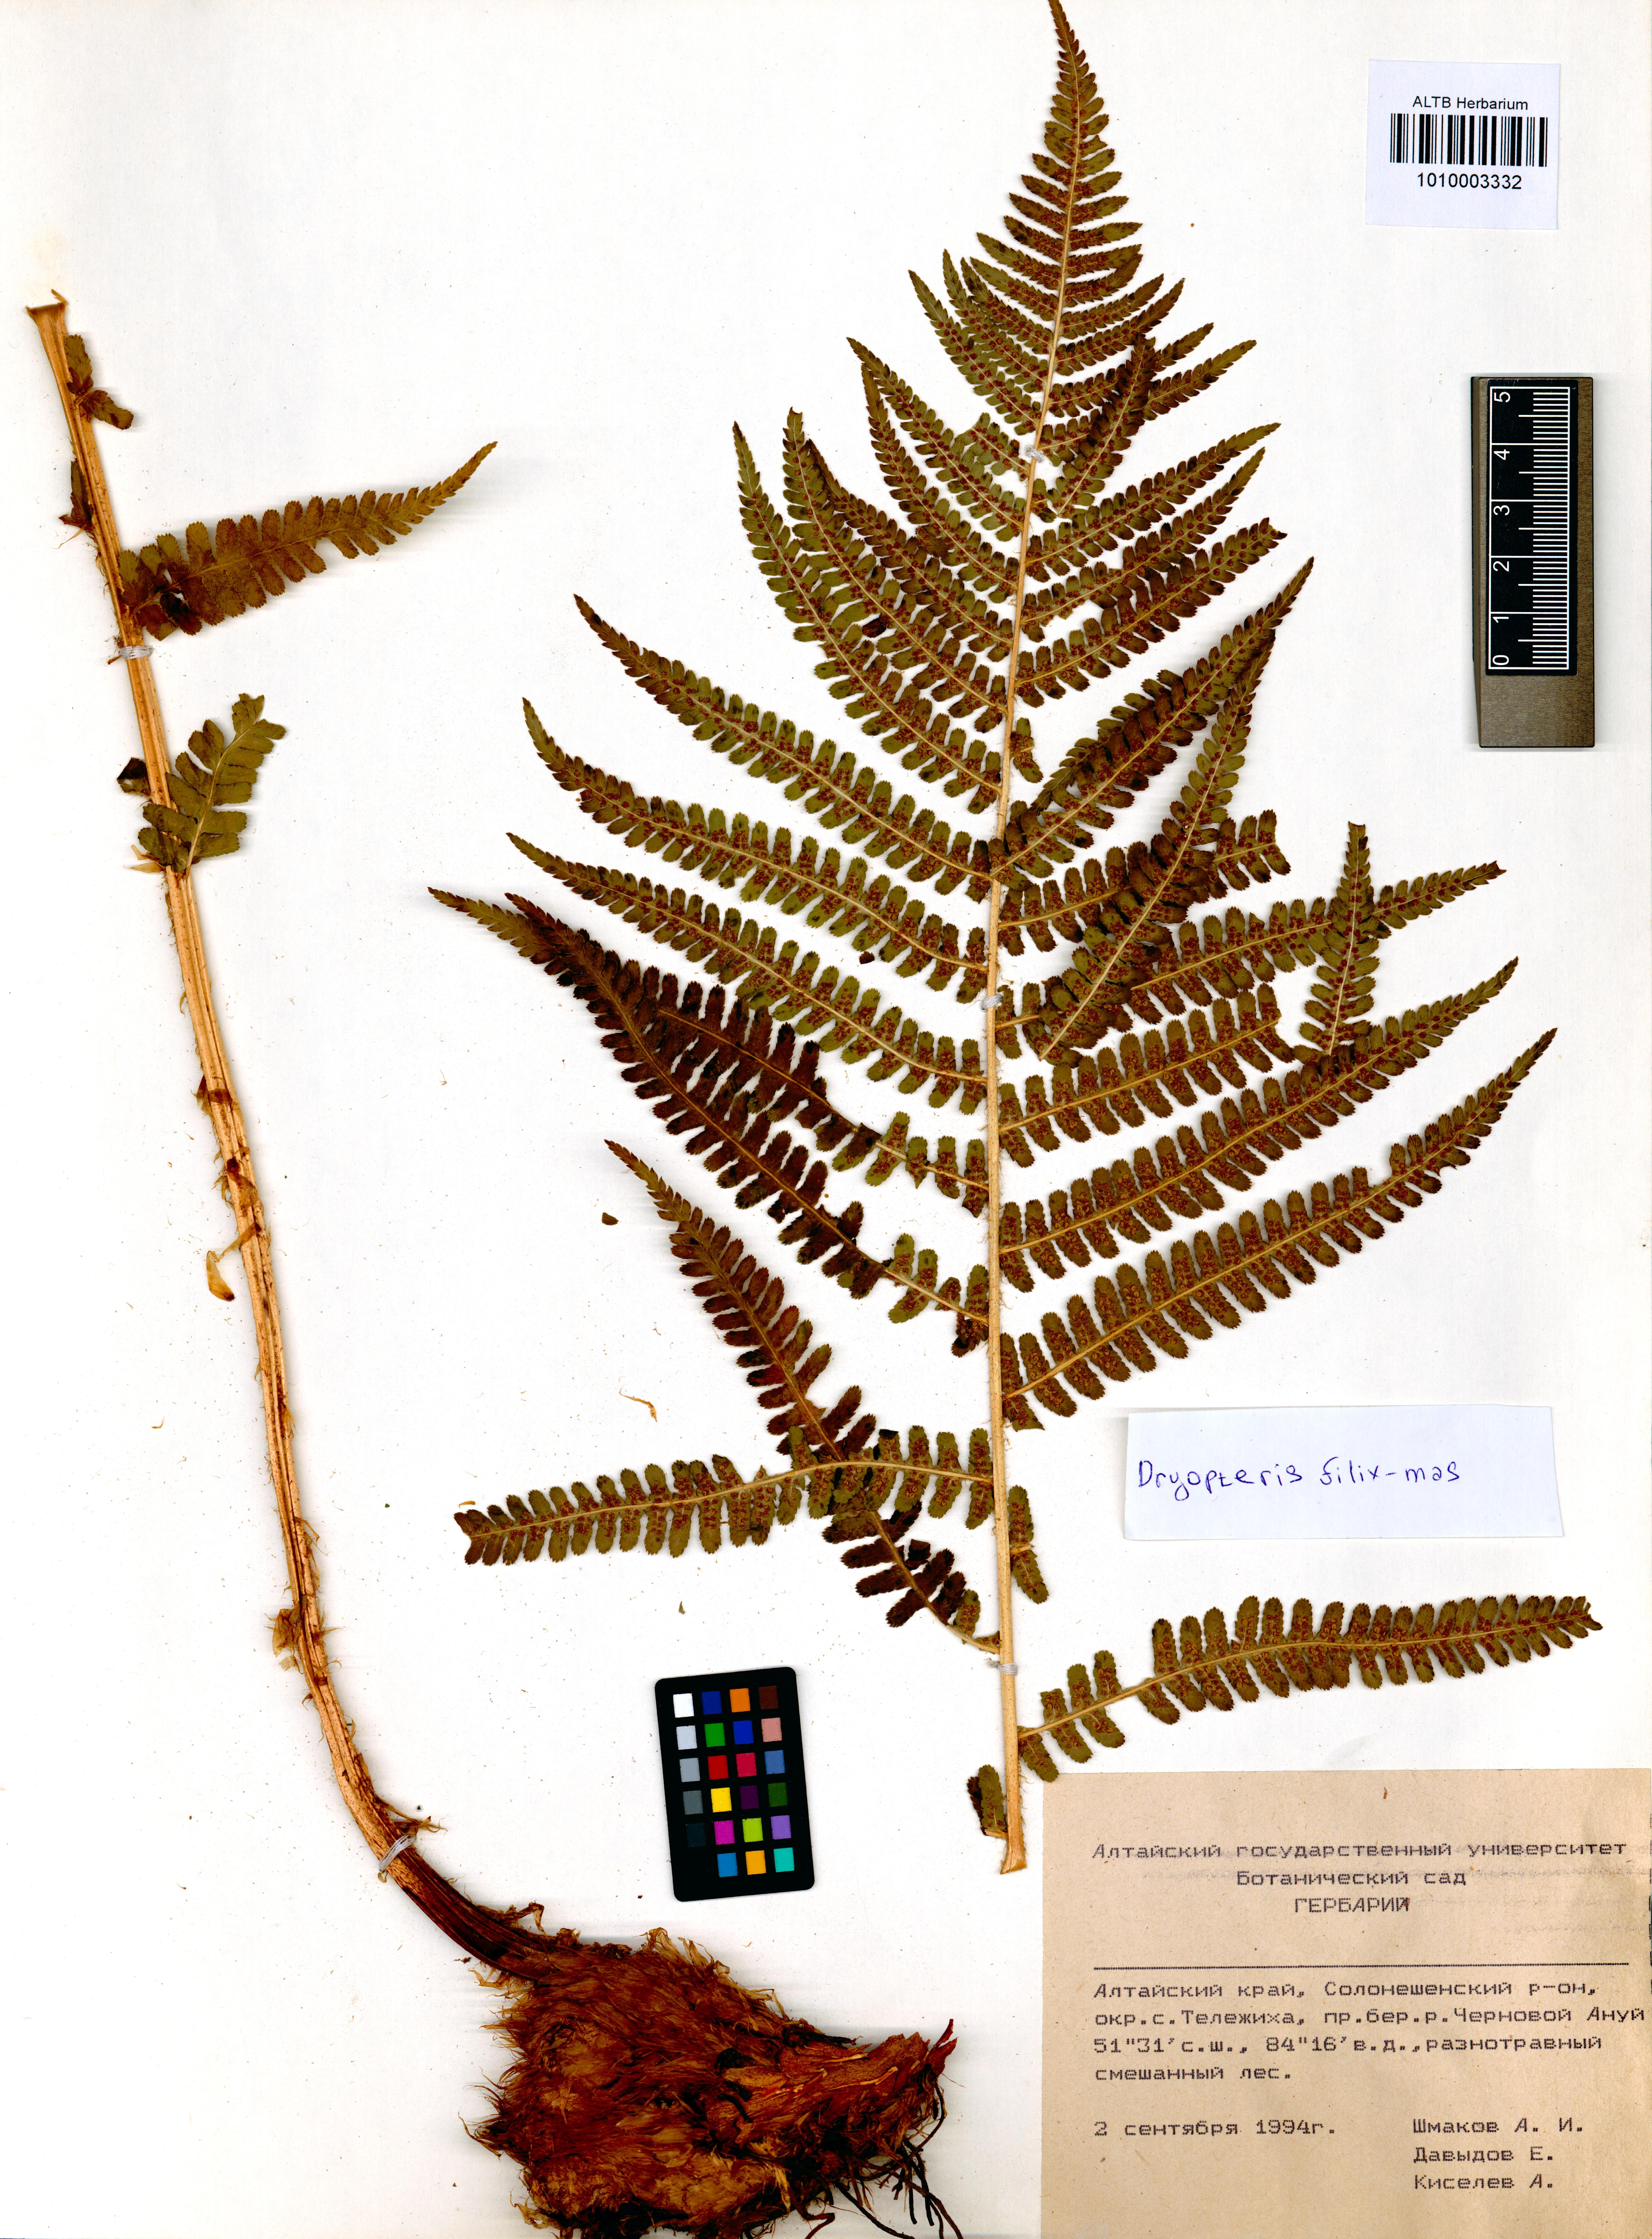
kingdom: Plantae
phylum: Tracheophyta
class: Polypodiopsida
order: Polypodiales
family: Dryopteridaceae
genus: Dryopteris
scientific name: Dryopteris filix-mas
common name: Male fern
